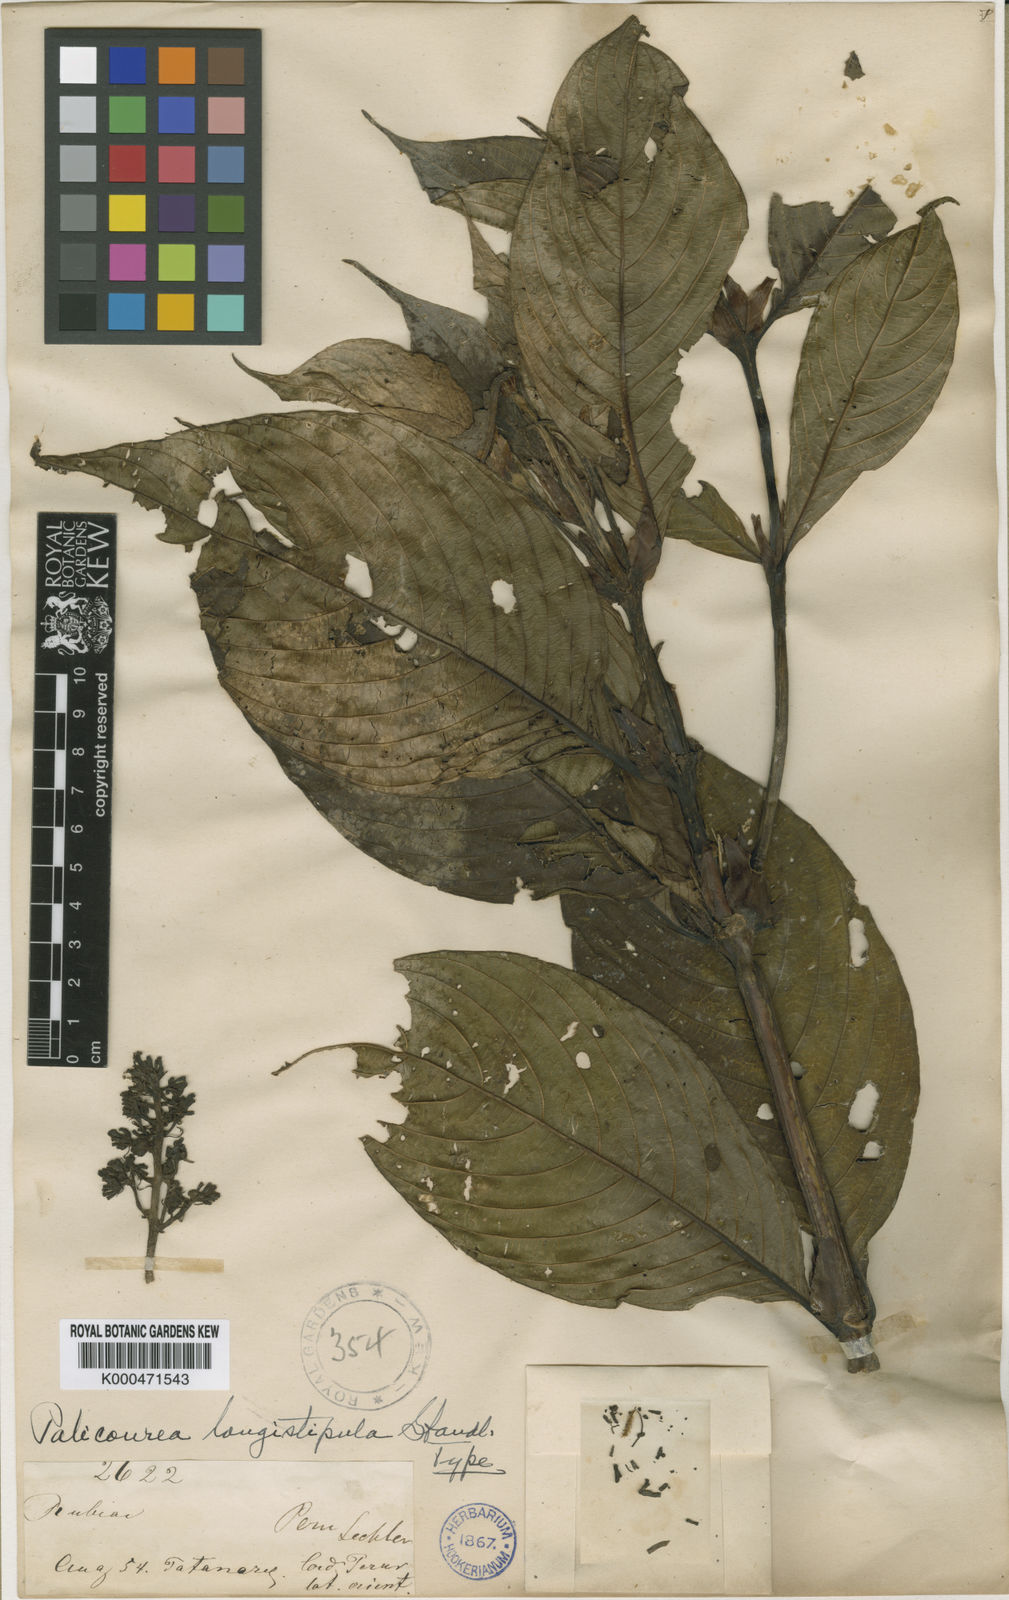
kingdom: Plantae
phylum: Tracheophyta
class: Magnoliopsida
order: Gentianales
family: Rubiaceae
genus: Palicourea
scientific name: Palicourea longistipula
